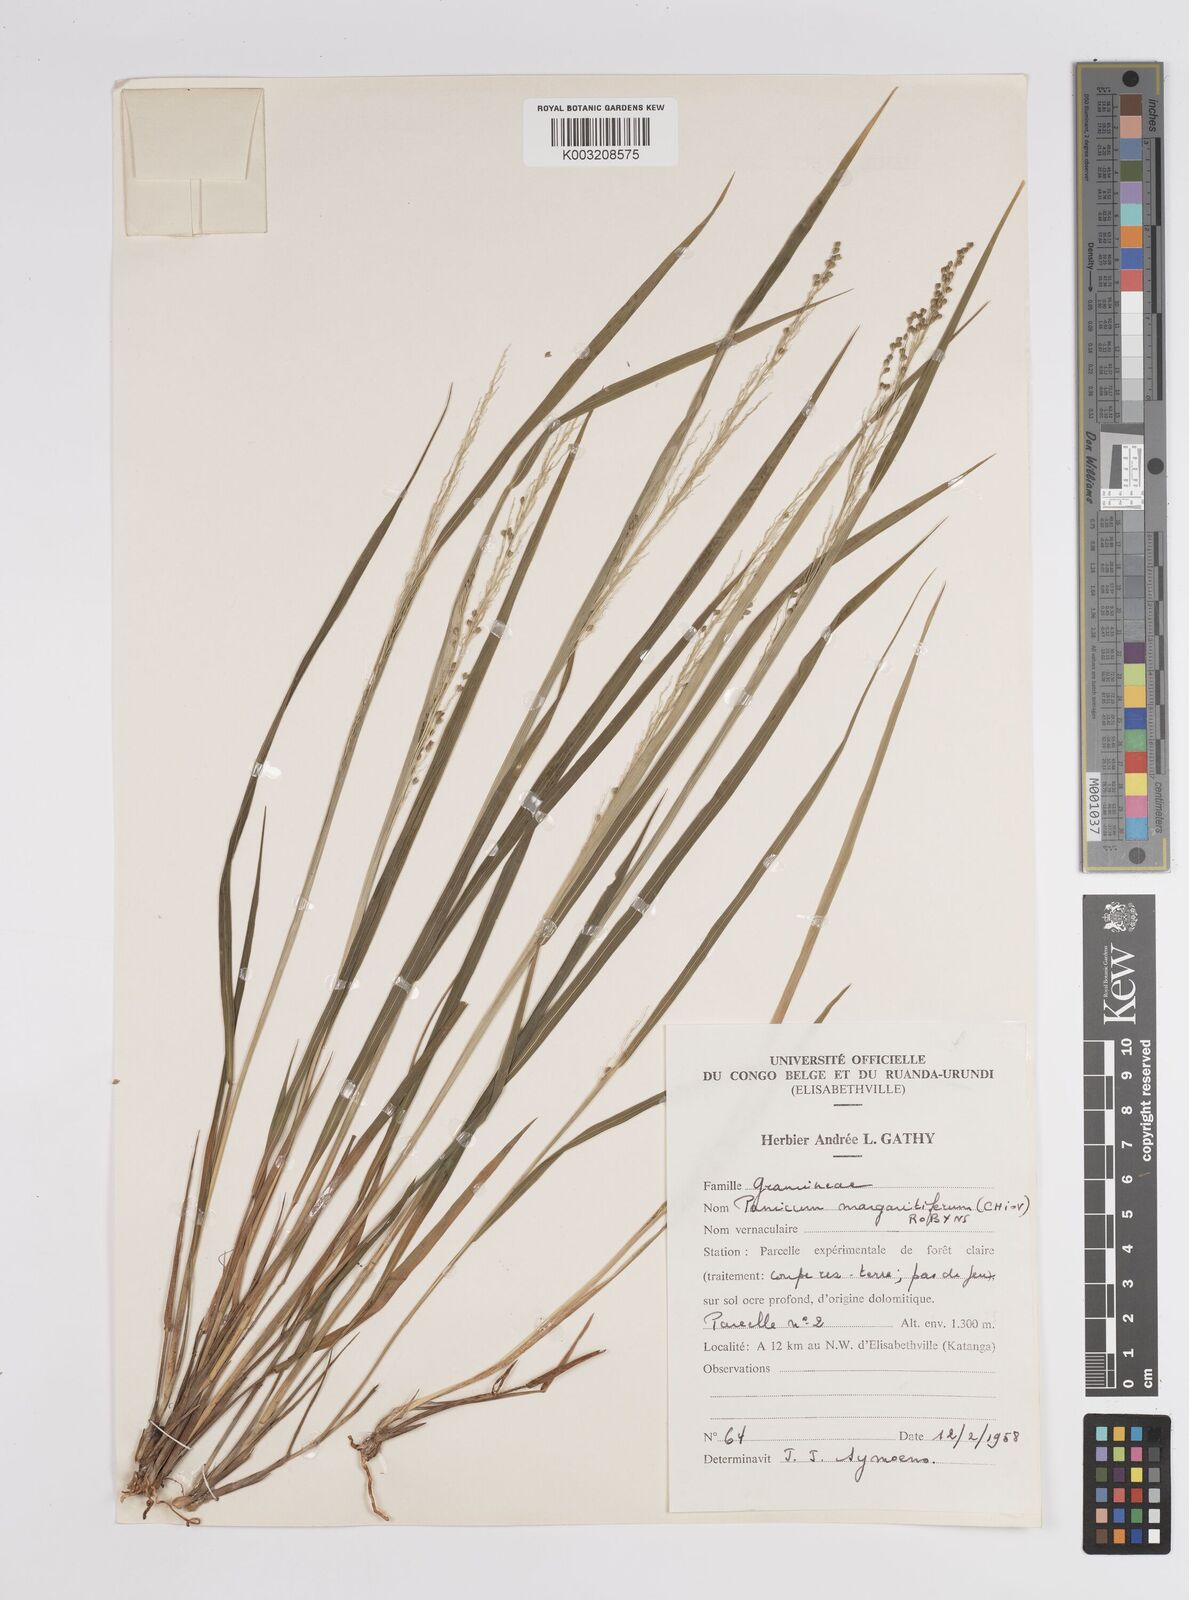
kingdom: Plantae
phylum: Tracheophyta
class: Liliopsida
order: Poales
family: Poaceae
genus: Trichanthecium
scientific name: Trichanthecium margaritiferum
